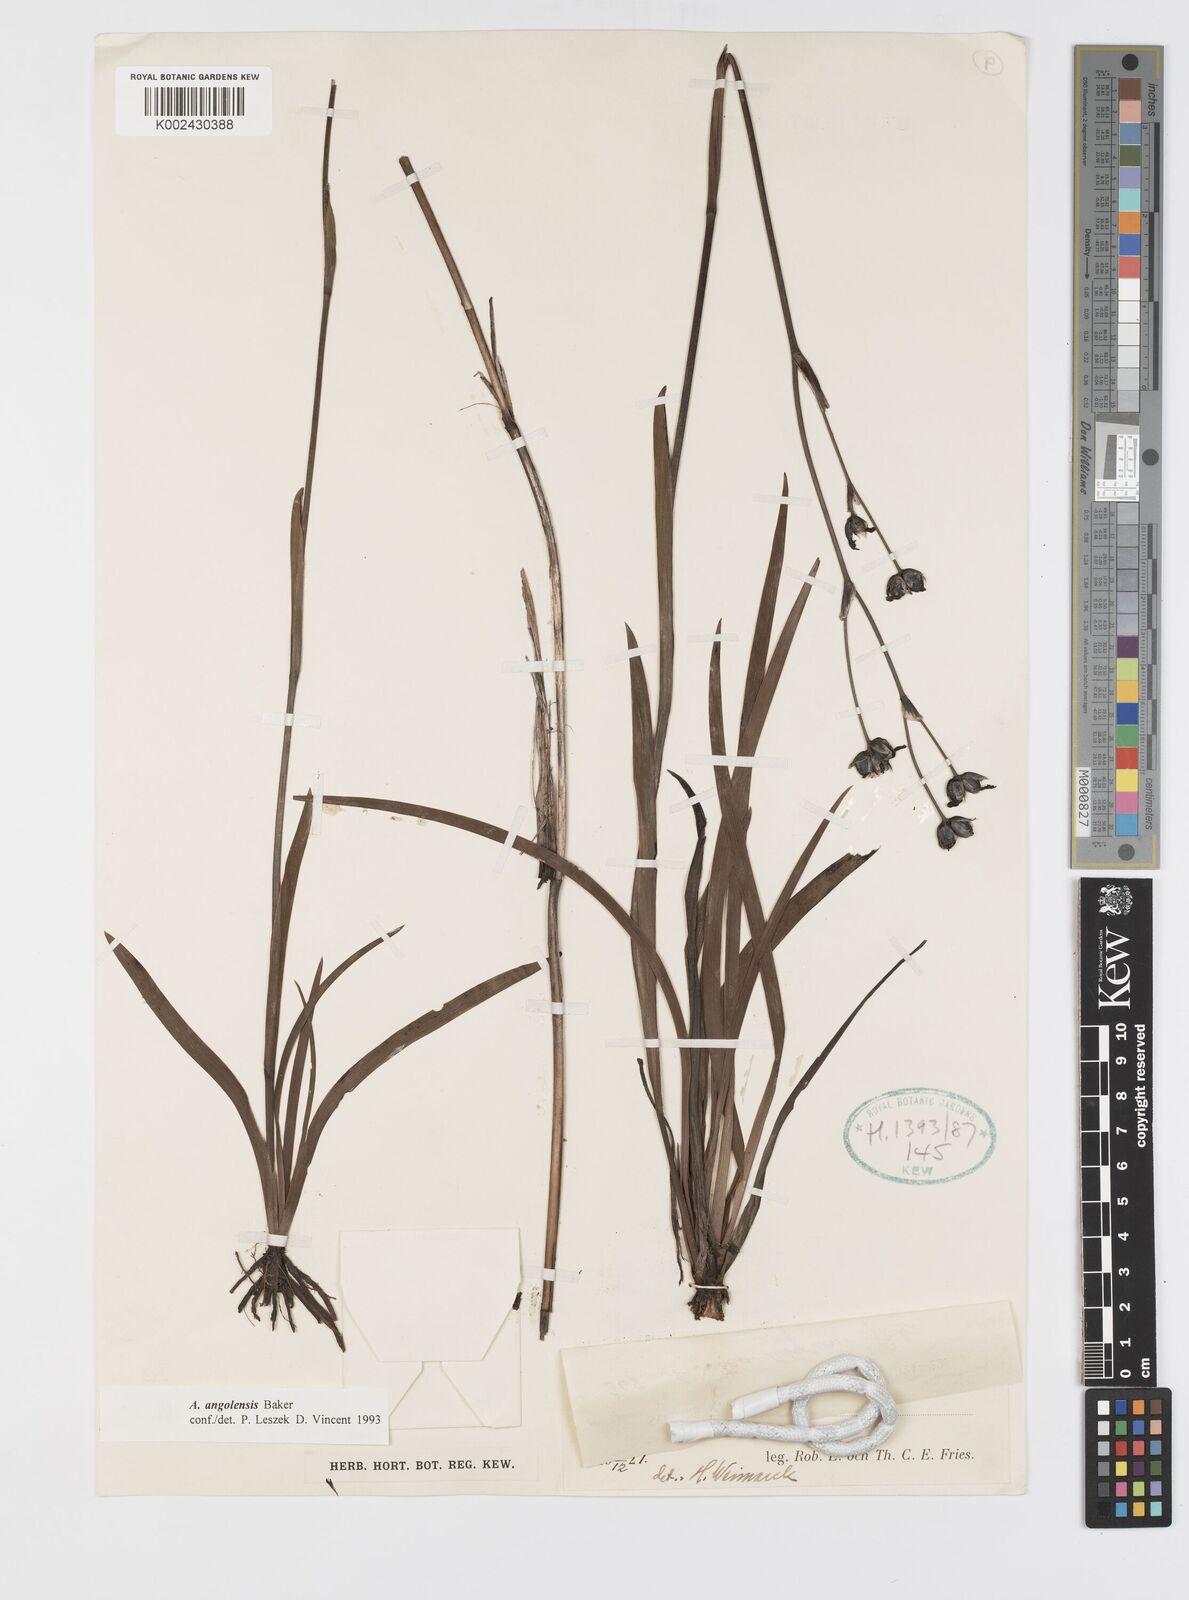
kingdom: Plantae
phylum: Tracheophyta
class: Liliopsida
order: Asparagales
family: Iridaceae
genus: Aristea
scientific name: Aristea angolensis
